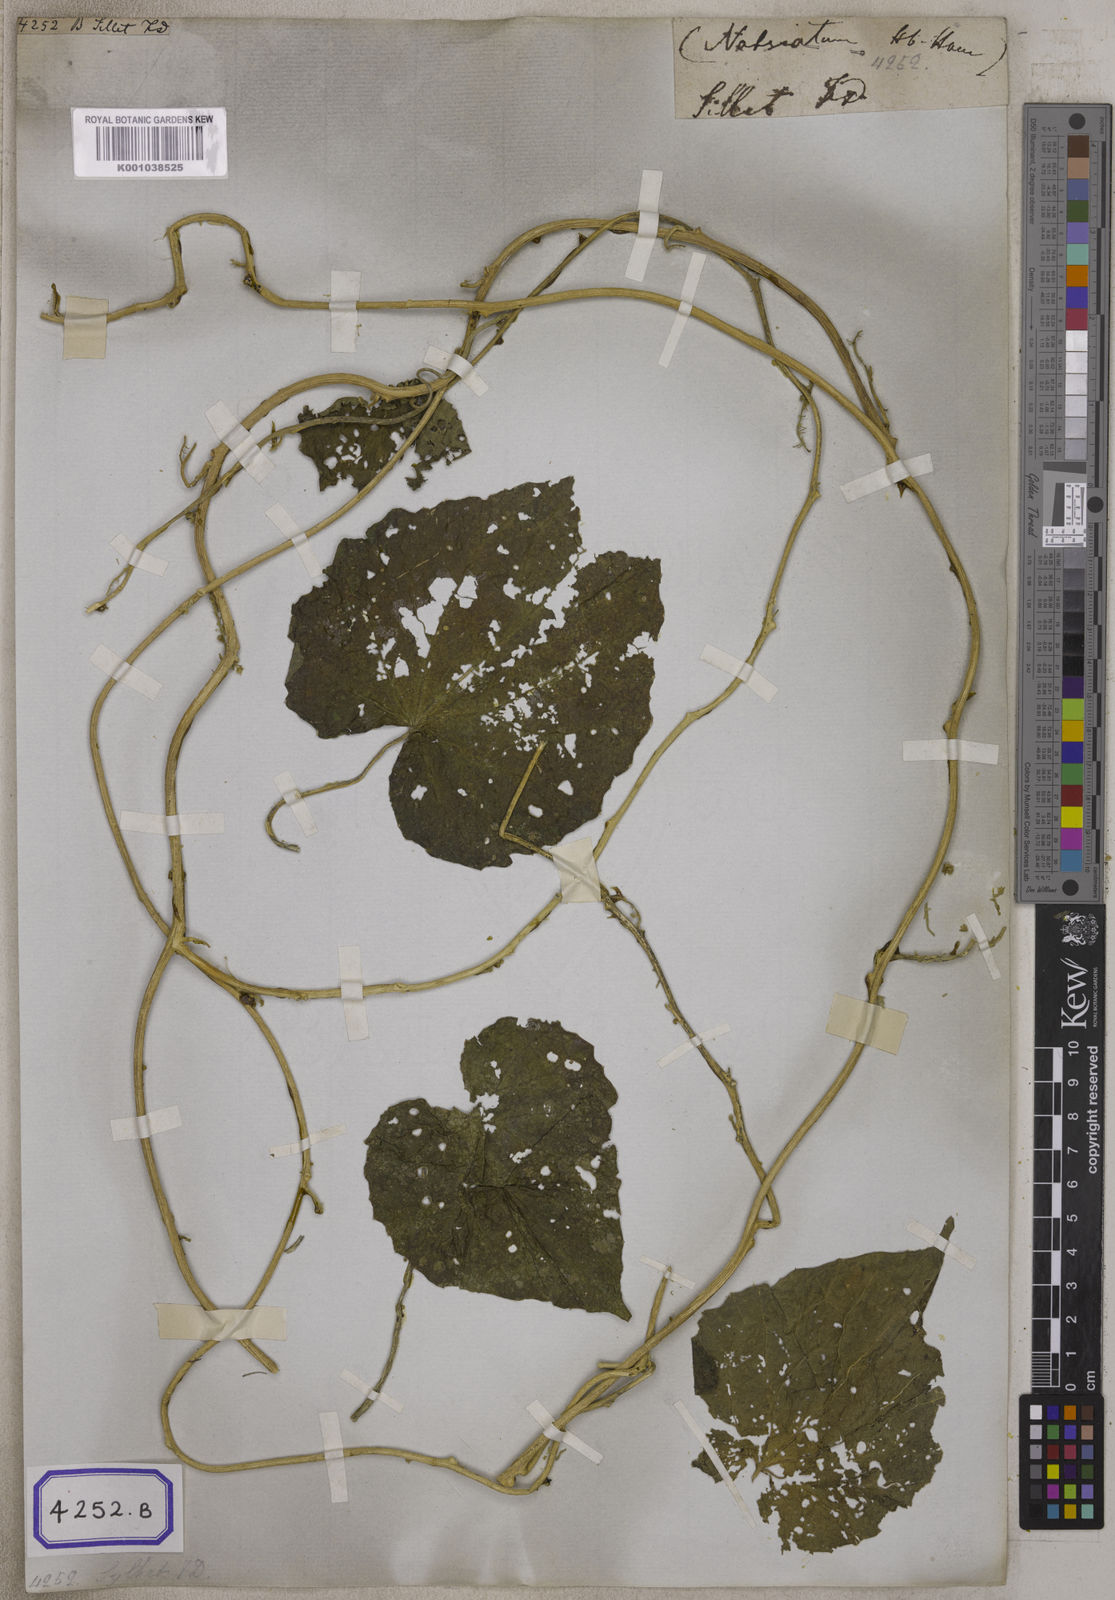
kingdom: Plantae
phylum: Tracheophyta
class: Magnoliopsida
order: Icacinales
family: Icacinaceae
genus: Natsiatum
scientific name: Natsiatum
